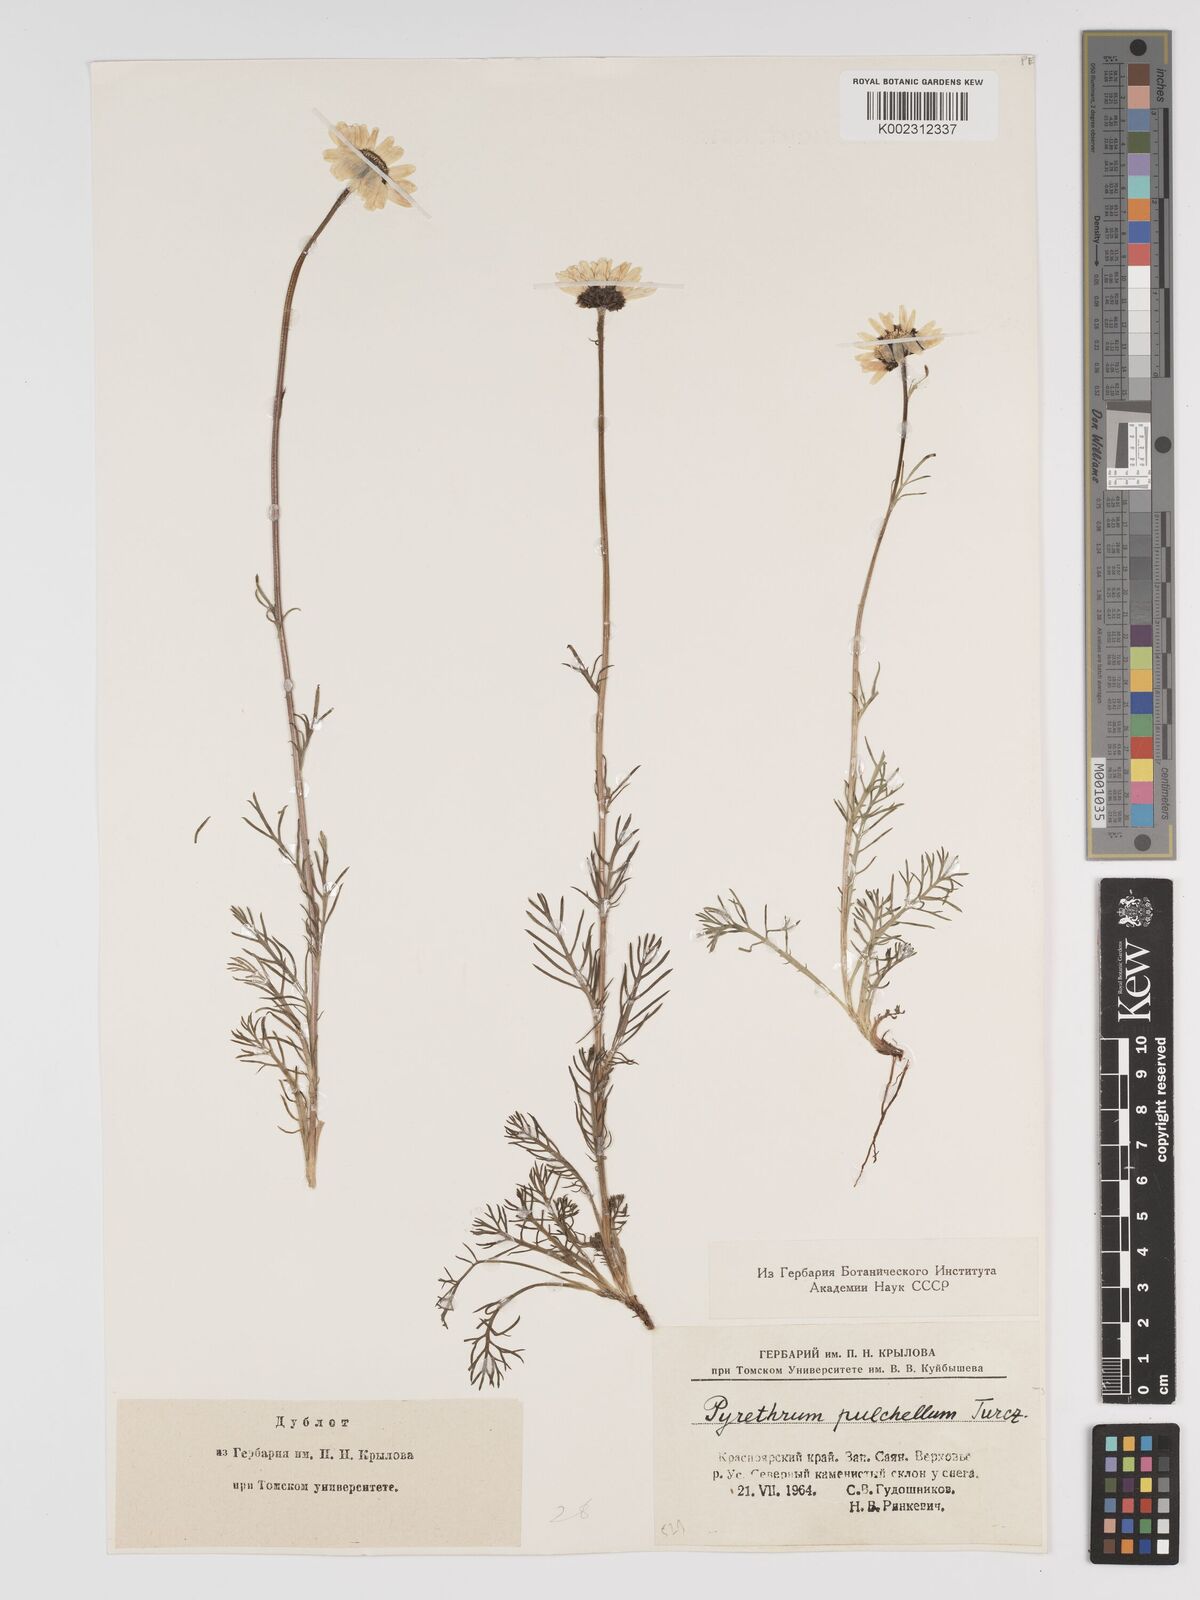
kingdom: Plantae
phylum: Tracheophyta
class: Magnoliopsida
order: Asterales
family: Asteraceae
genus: Tanacetum
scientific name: Tanacetum pulchellum
